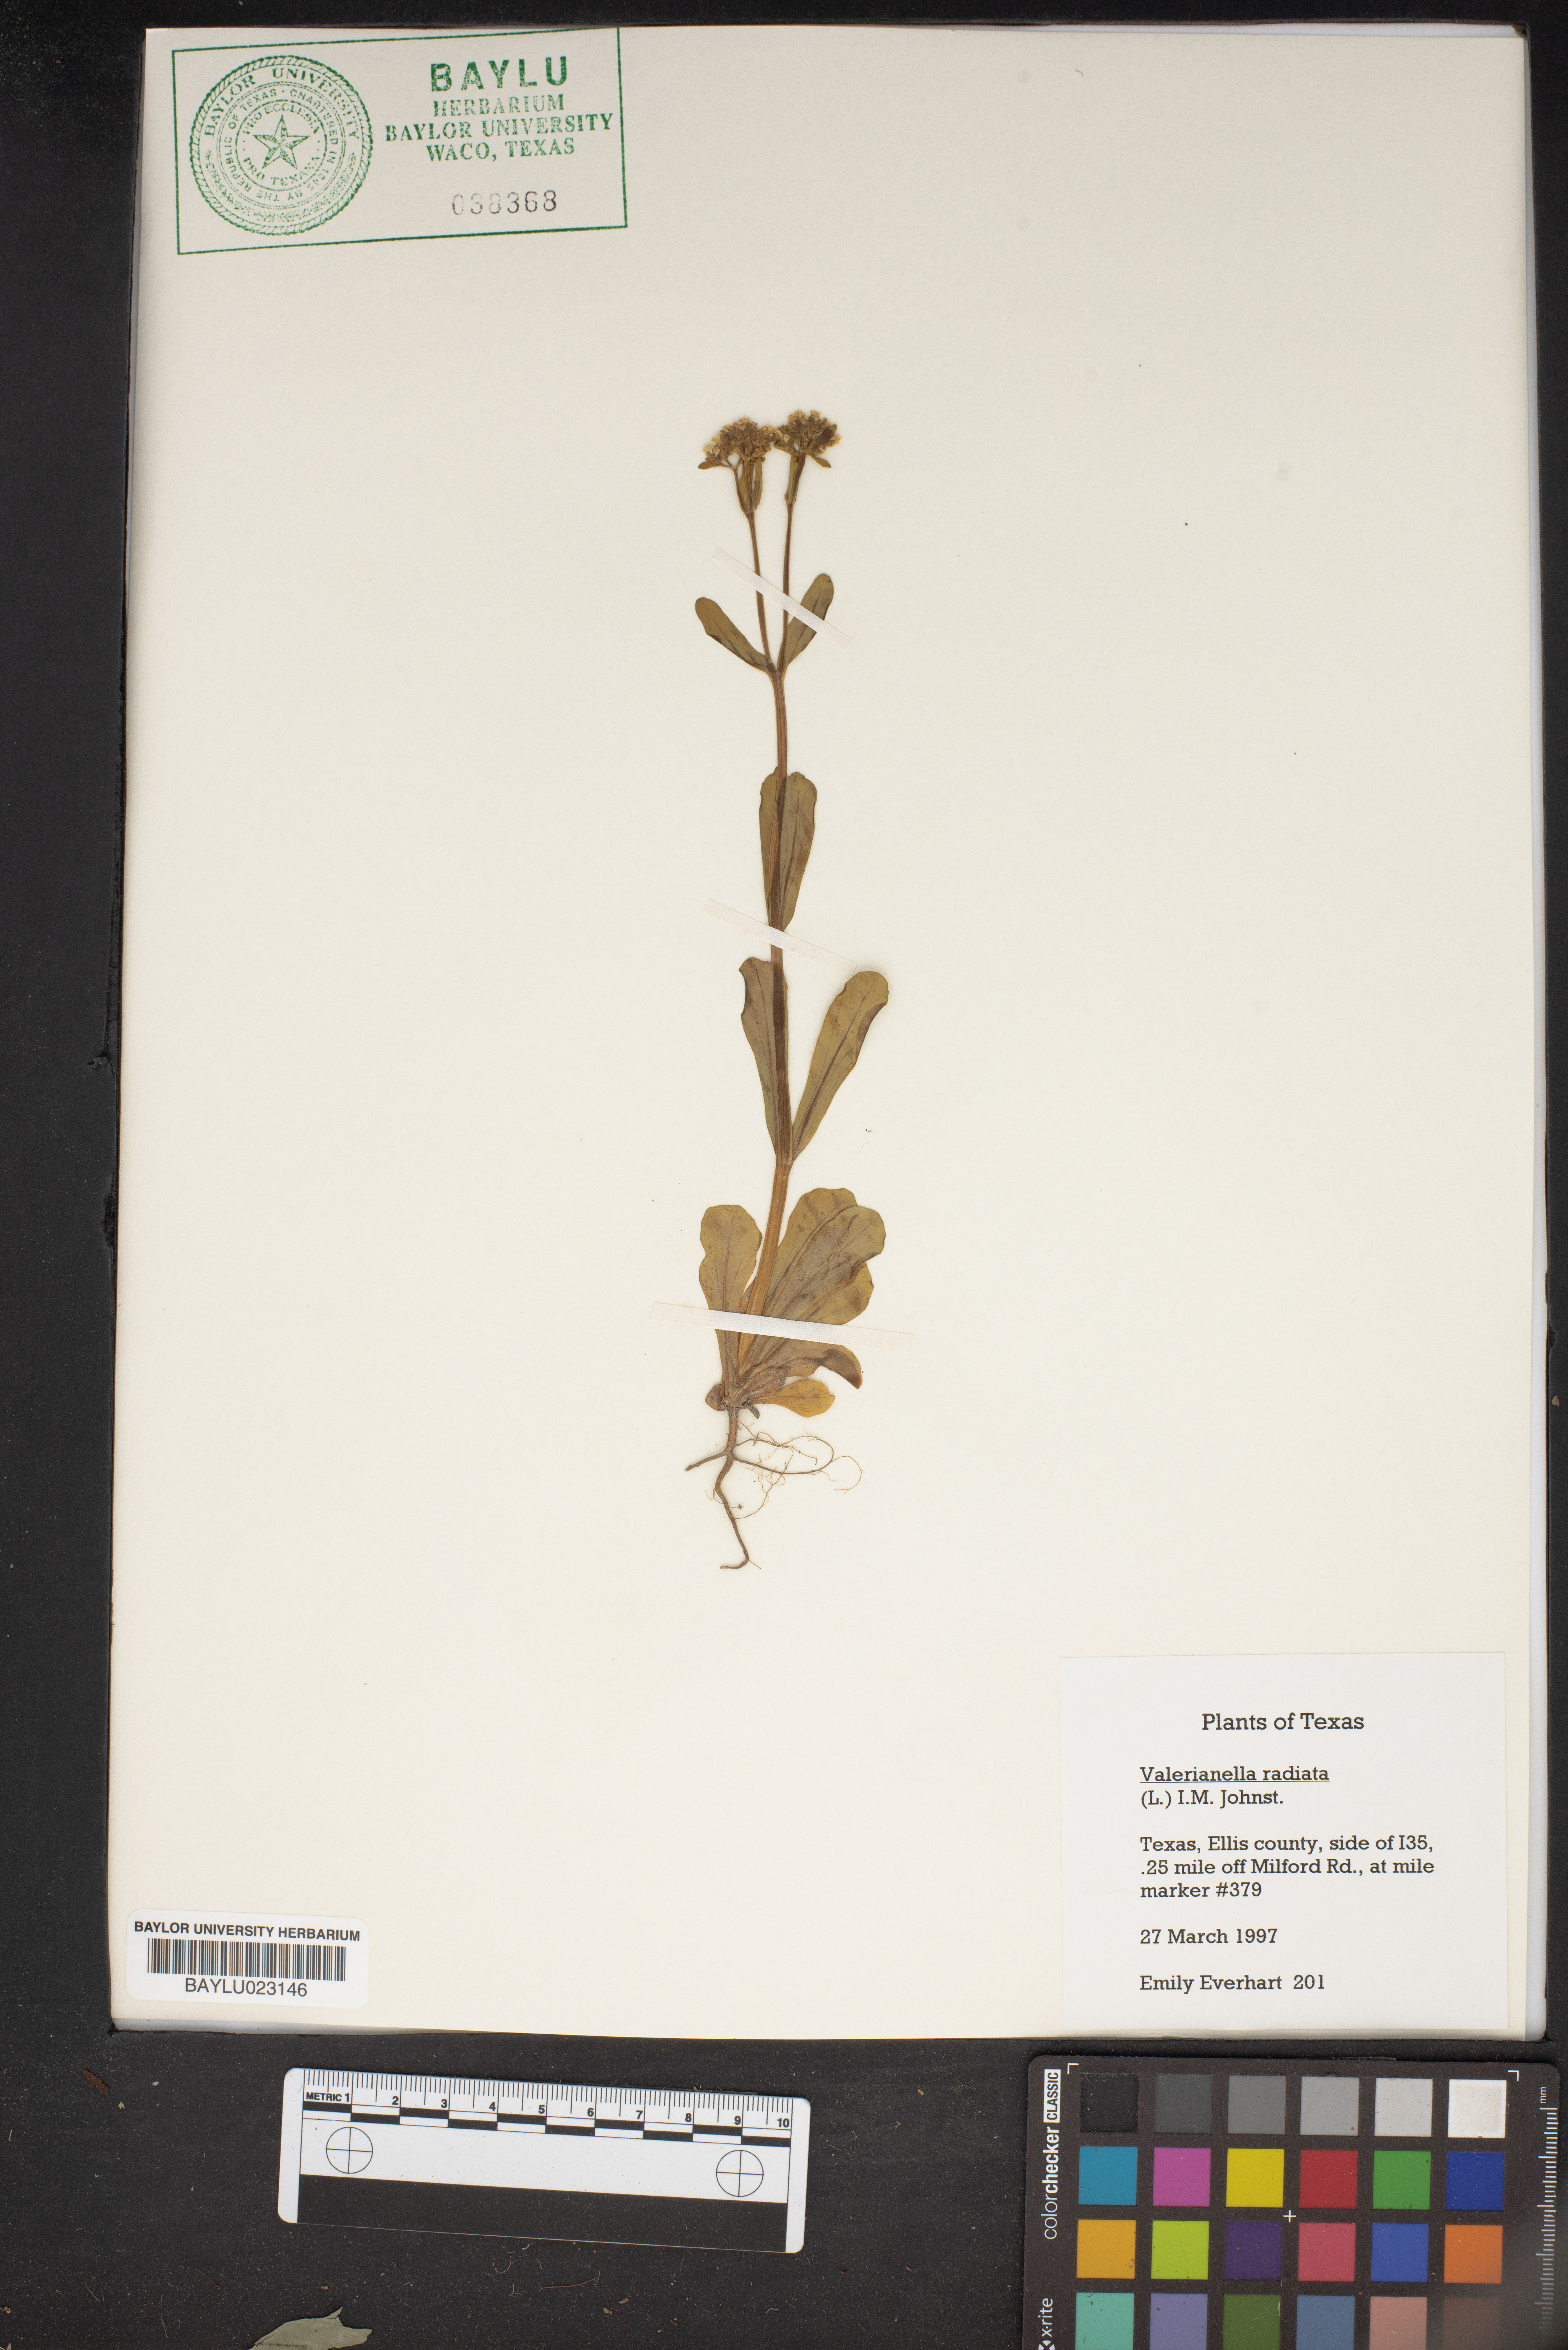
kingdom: Plantae
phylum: Tracheophyta
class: Magnoliopsida
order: Dipsacales
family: Caprifoliaceae
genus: Valerianella
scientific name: Valerianella radiata
